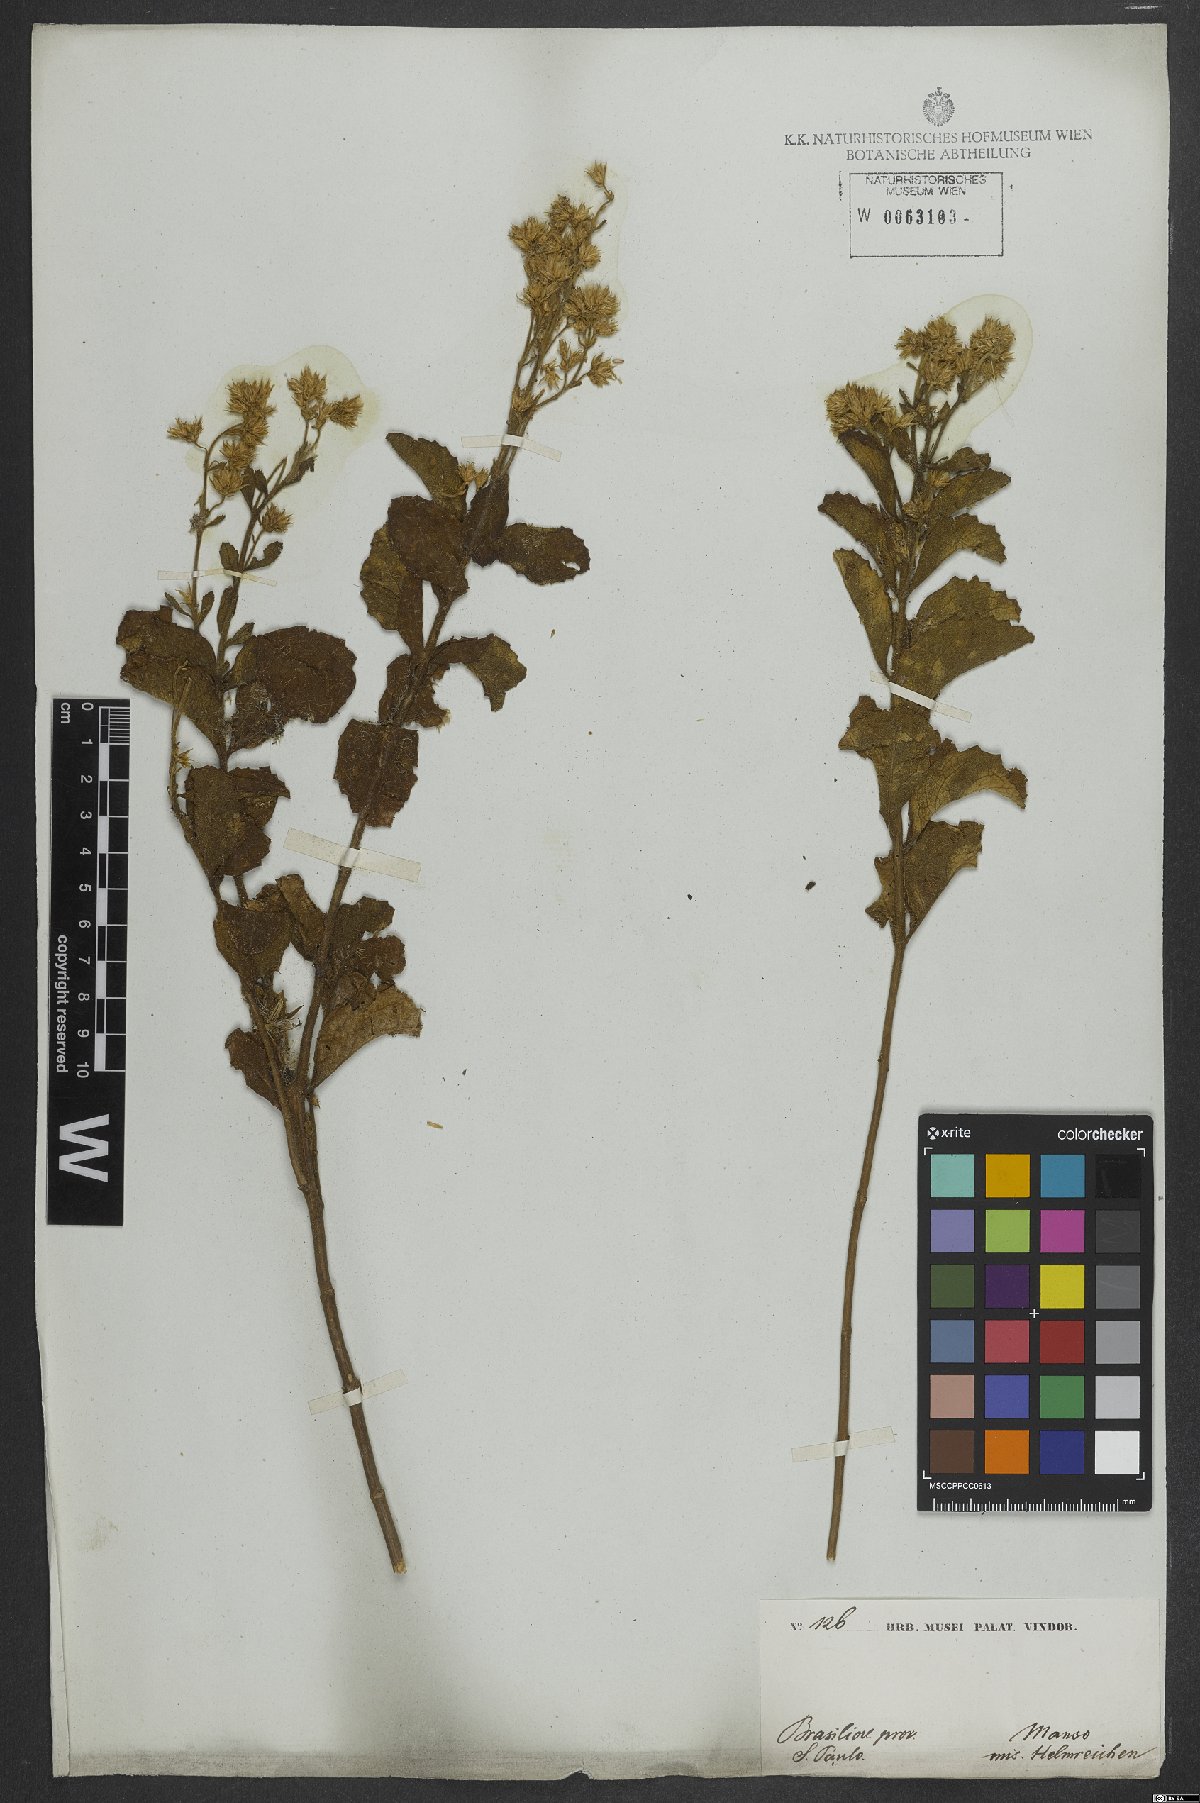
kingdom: Plantae
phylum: Tracheophyta
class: Magnoliopsida
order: Asterales
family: Asteraceae
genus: Stomatanthes
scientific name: Stomatanthes dictyophyllus
